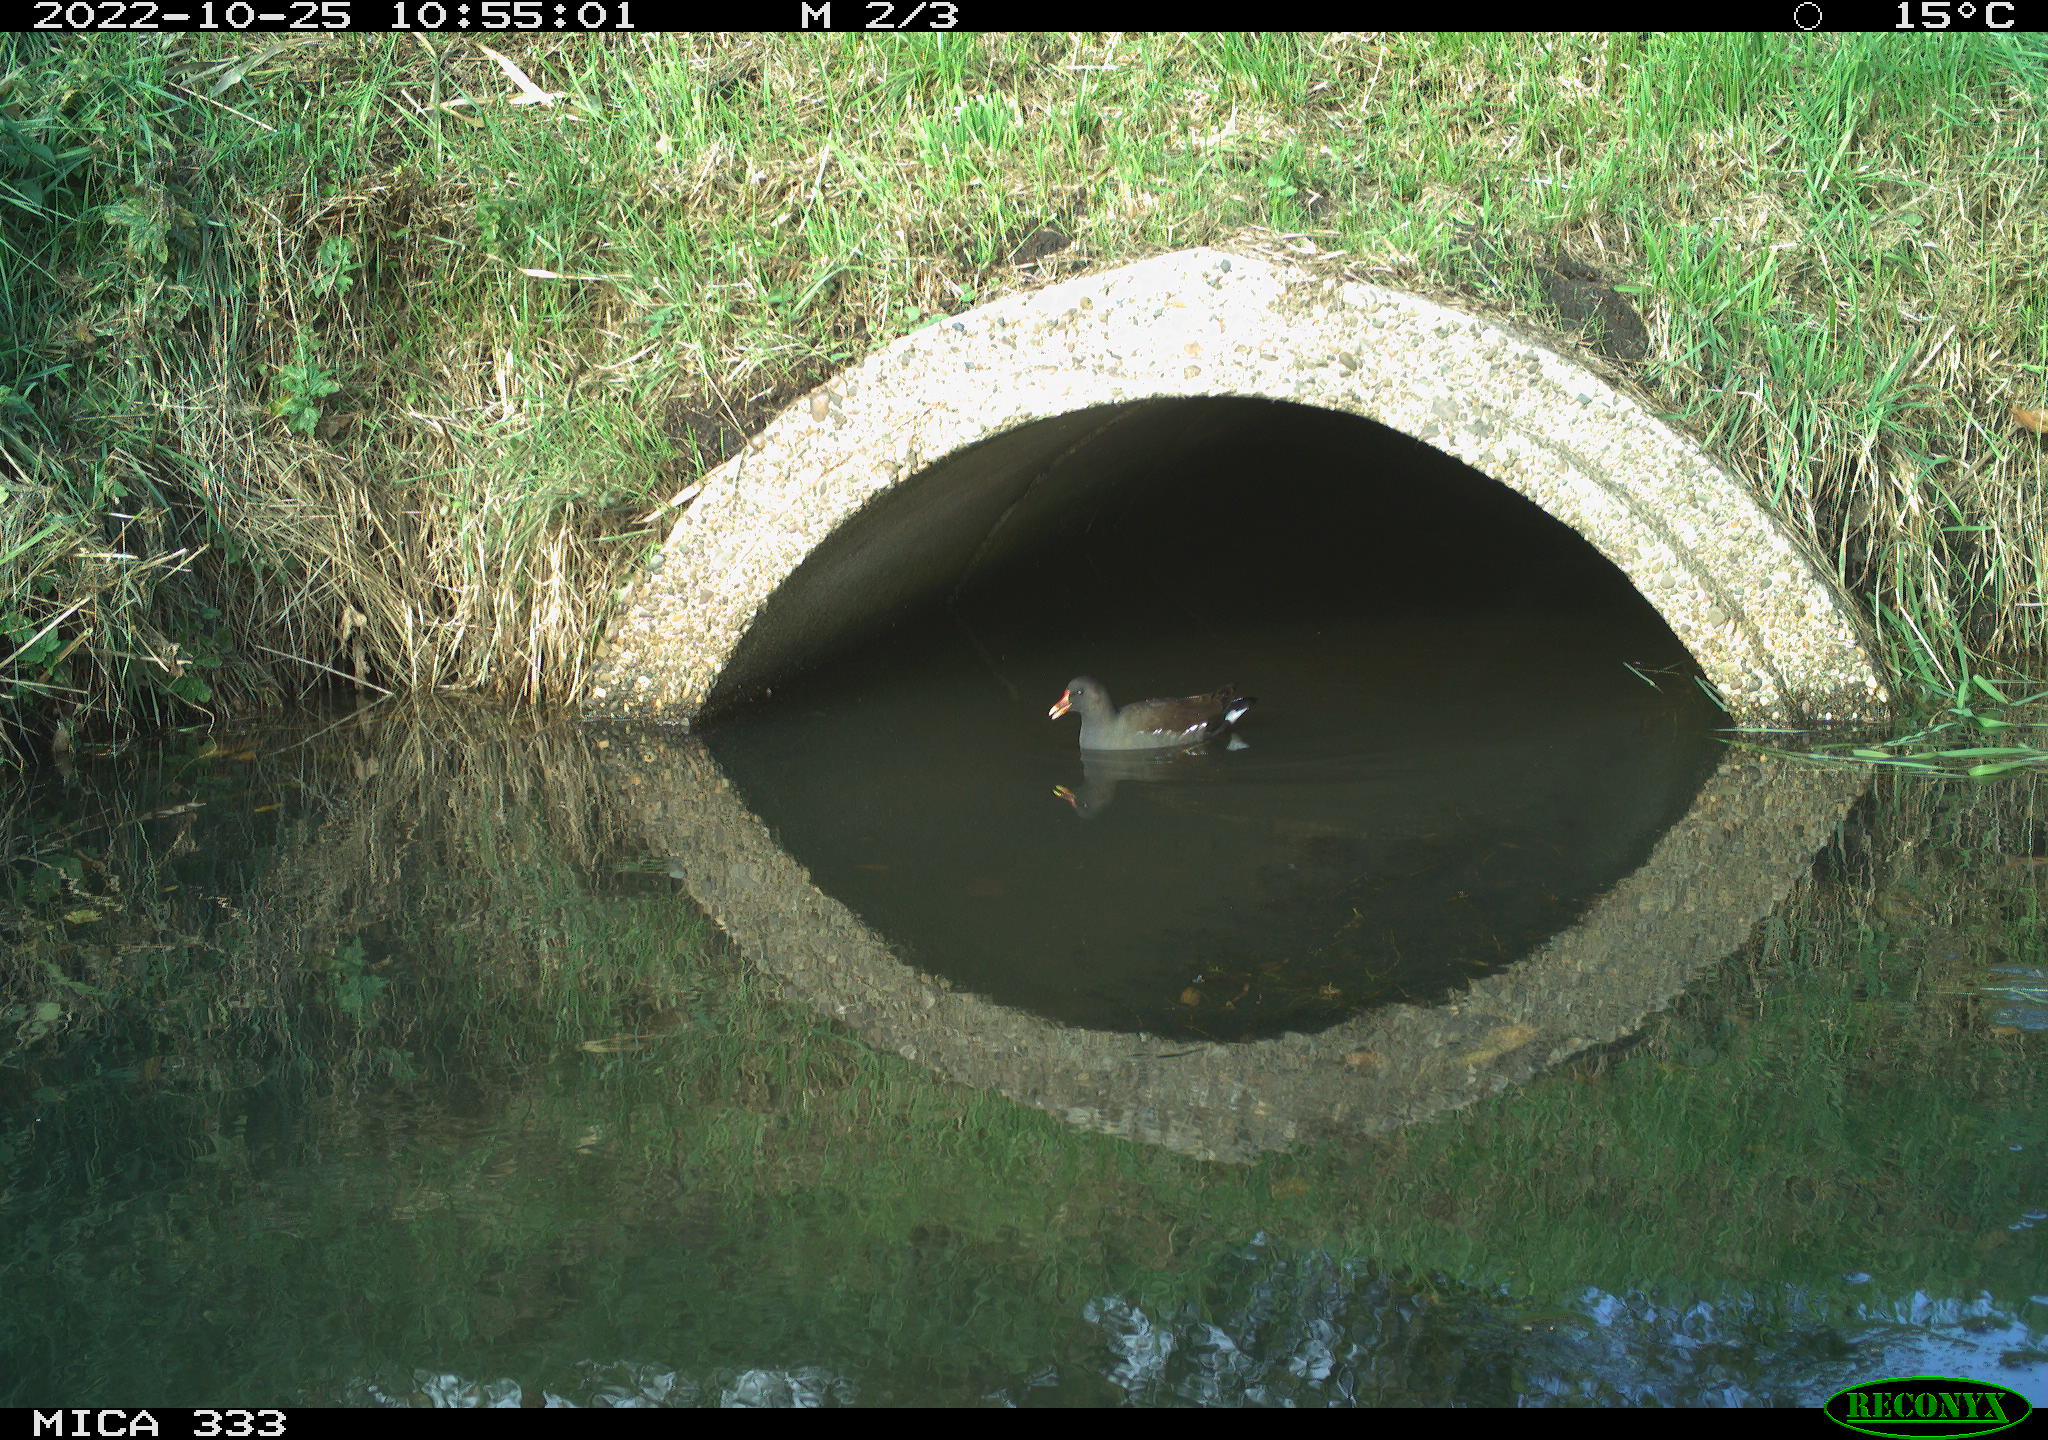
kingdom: Animalia
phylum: Chordata
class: Aves
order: Gruiformes
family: Rallidae
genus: Gallinula
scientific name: Gallinula chloropus
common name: Common moorhen
